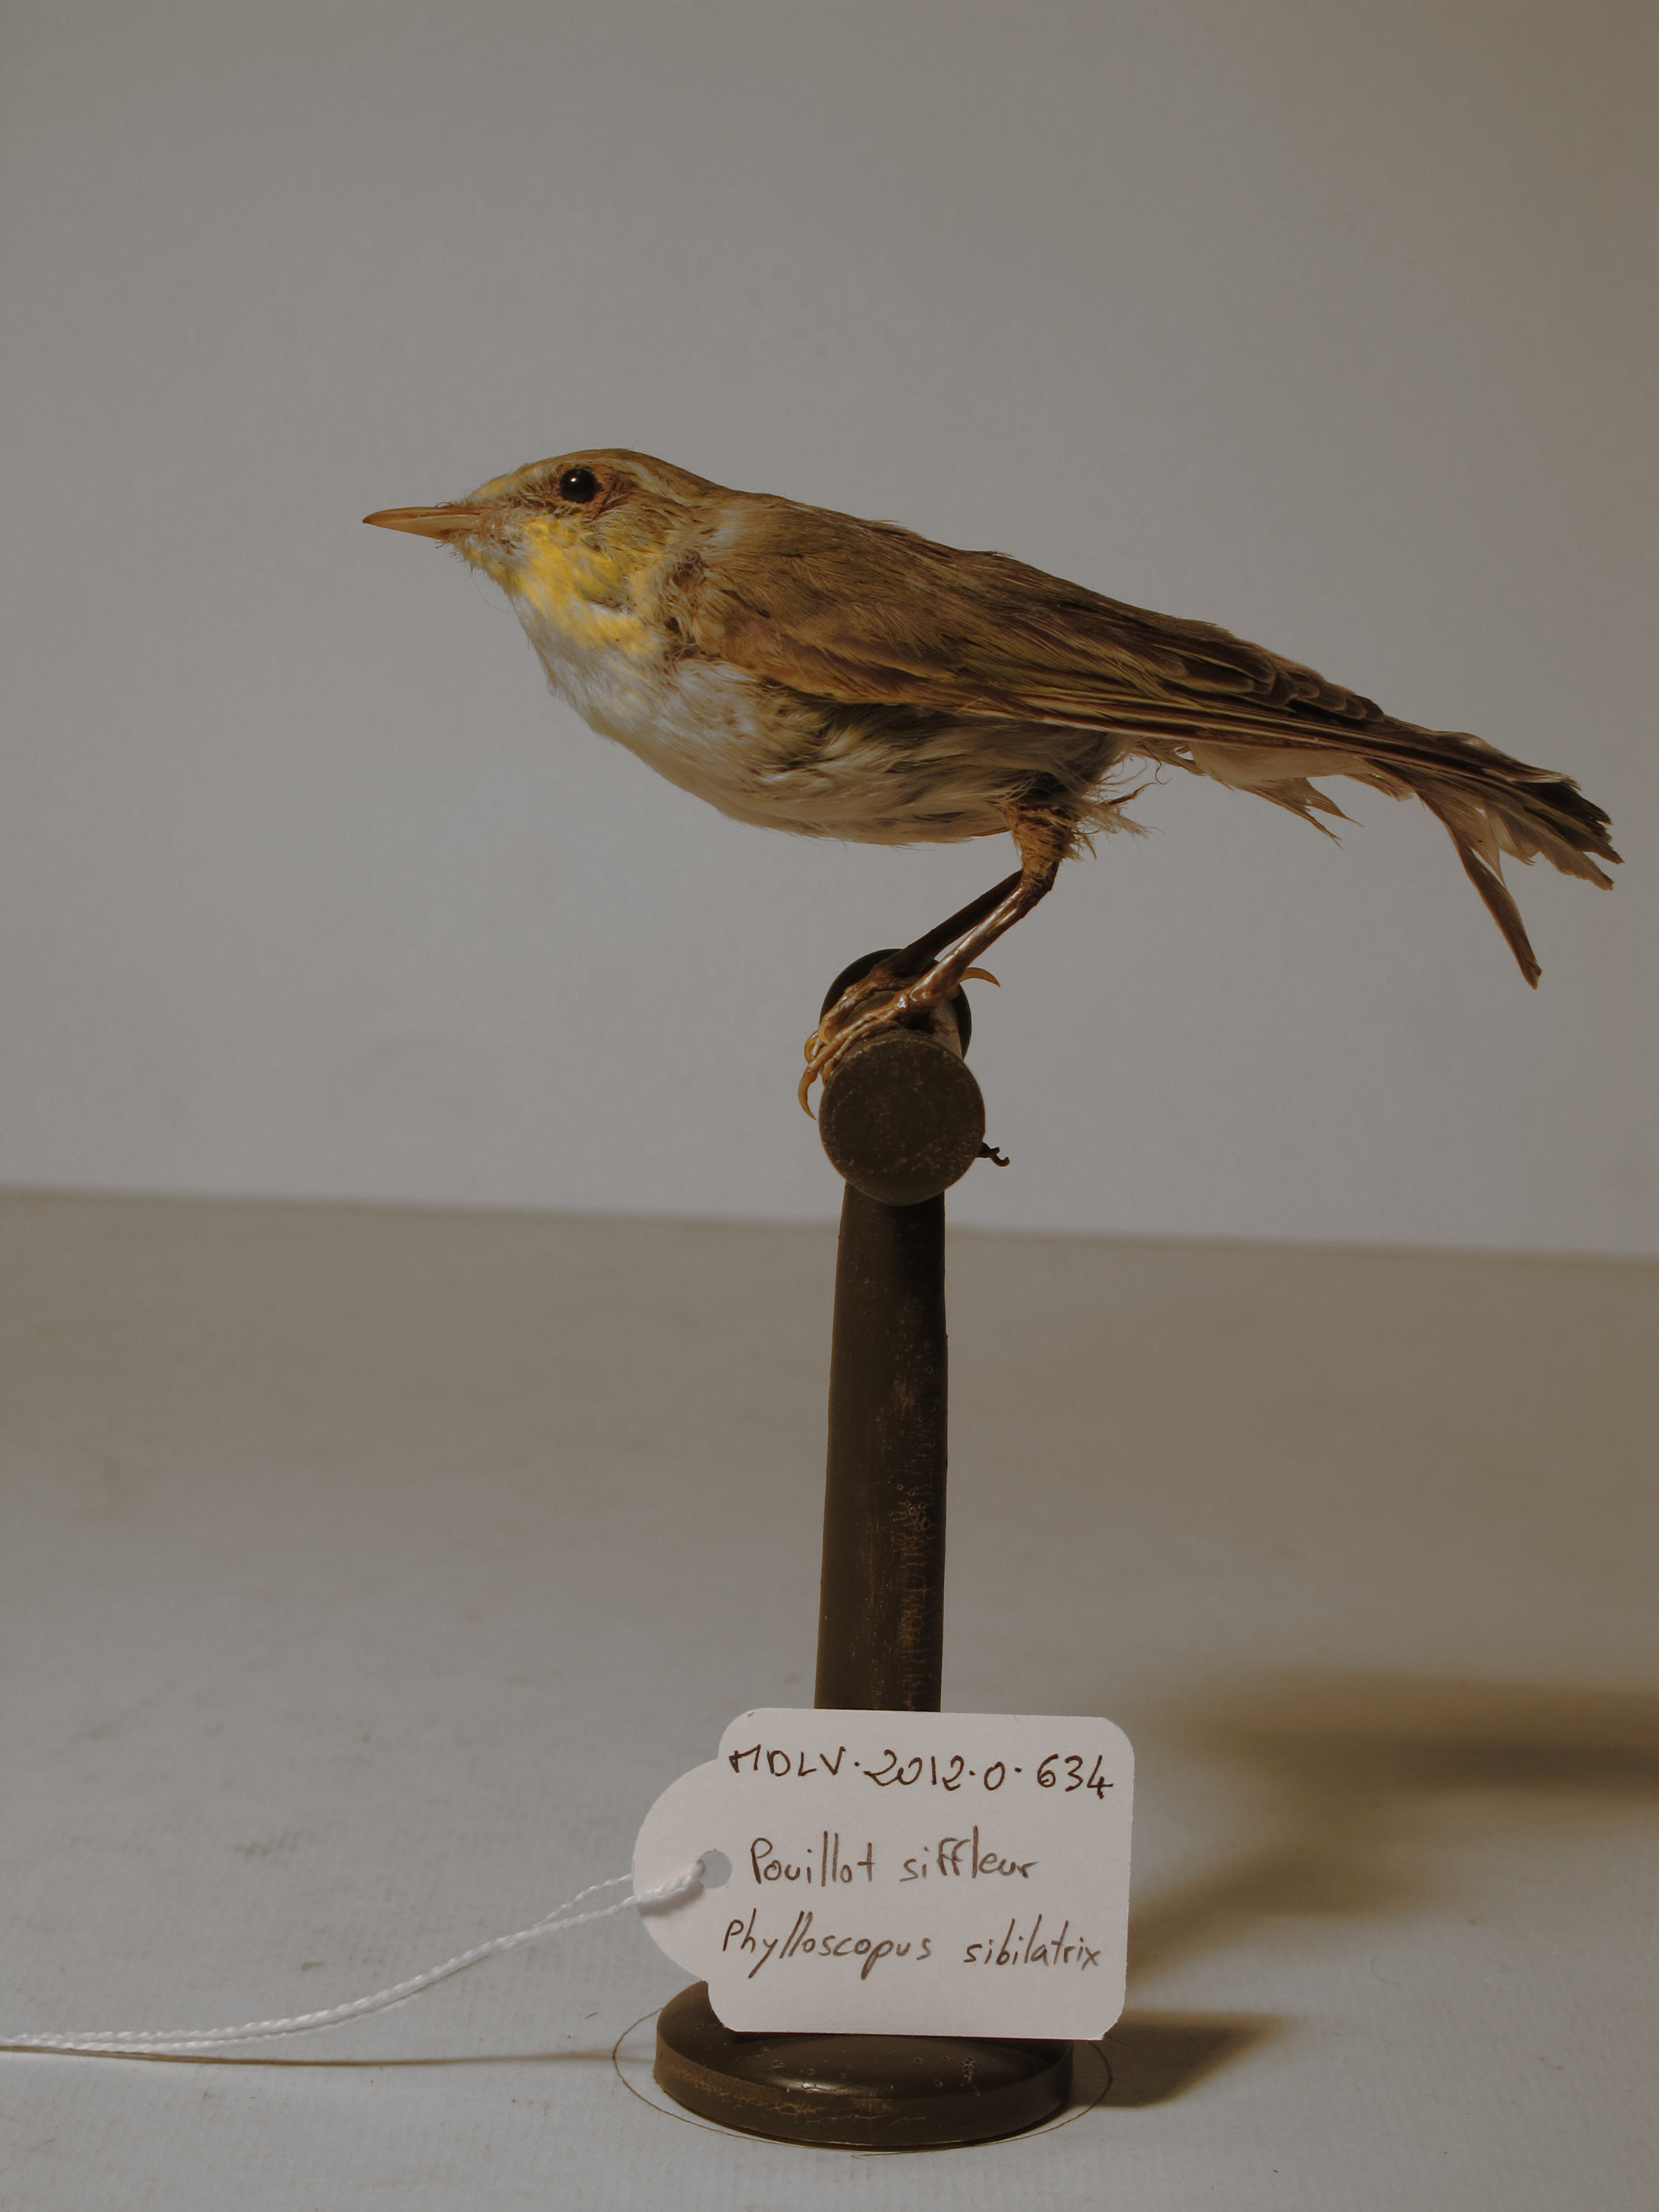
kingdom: Animalia
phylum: Chordata
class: Aves
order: Passeriformes
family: Phylloscopidae
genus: Phylloscopus
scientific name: Phylloscopus sibillatrix
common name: Wood Warbler
